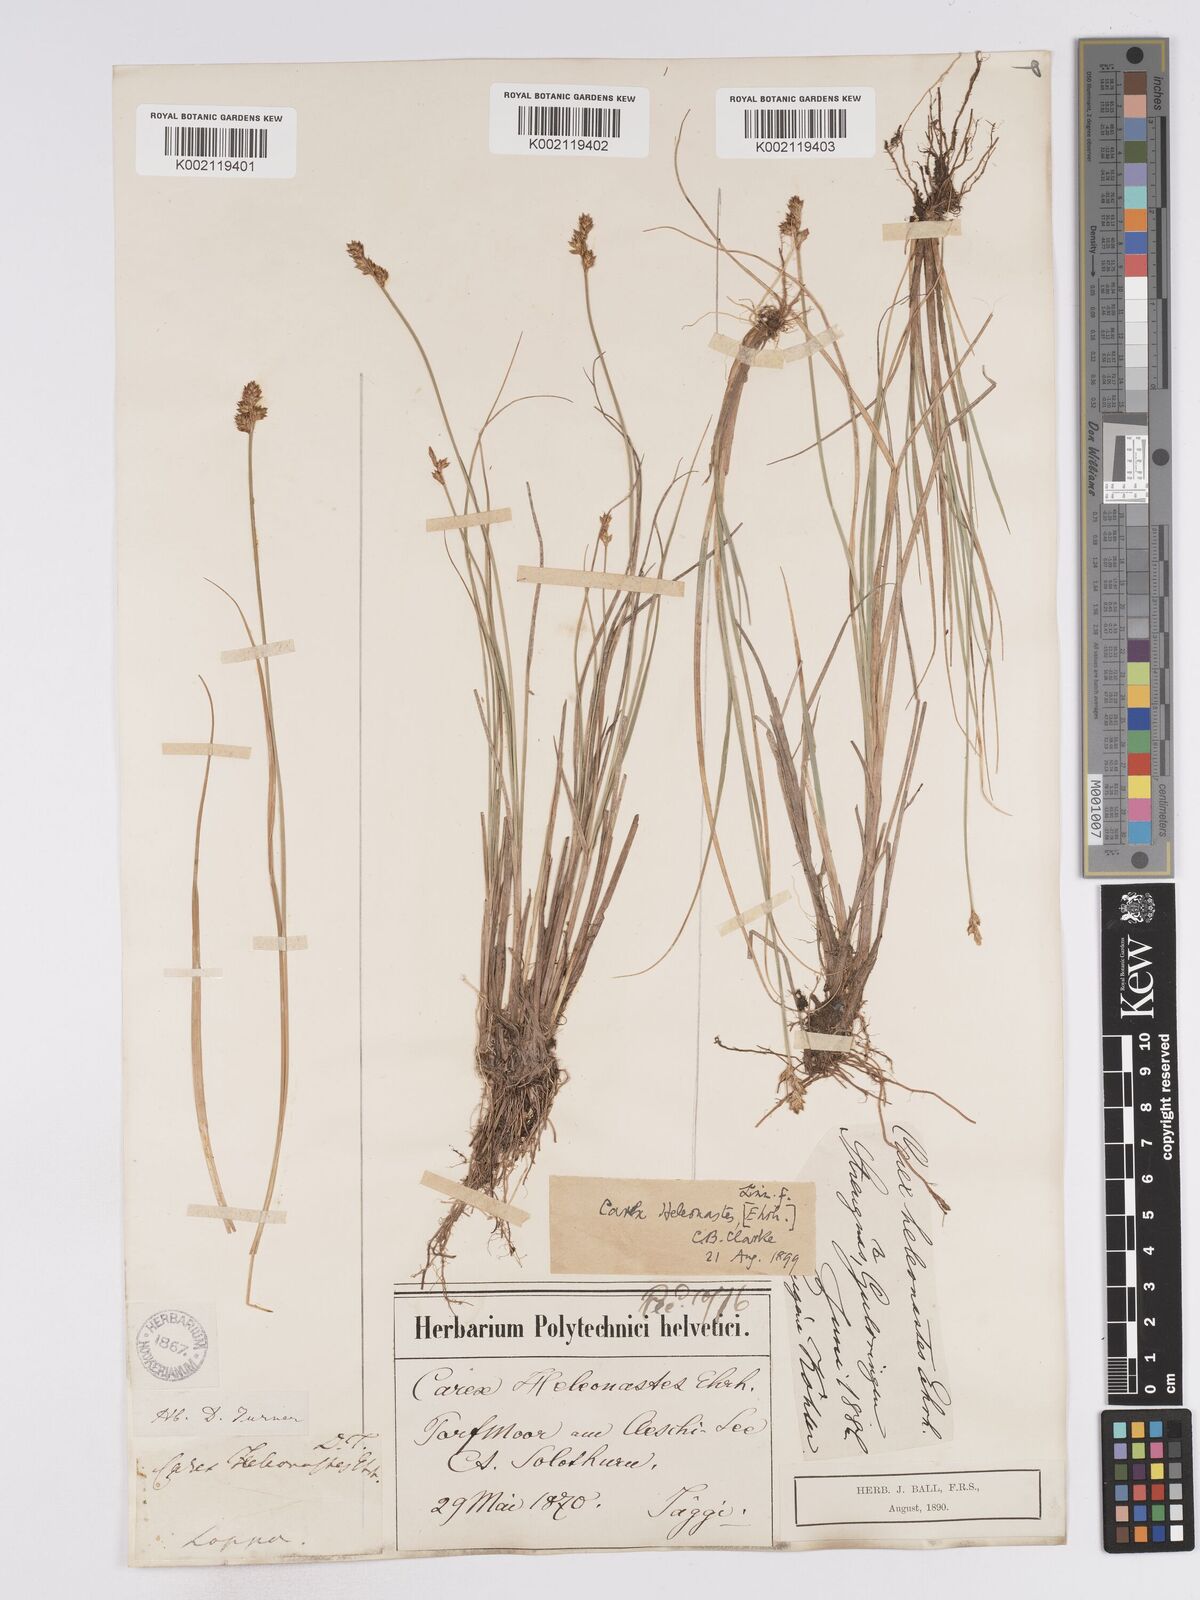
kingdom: Plantae
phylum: Tracheophyta
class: Liliopsida
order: Poales
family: Cyperaceae
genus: Carex
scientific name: Carex heleonastes
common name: Hudson bay sedge
